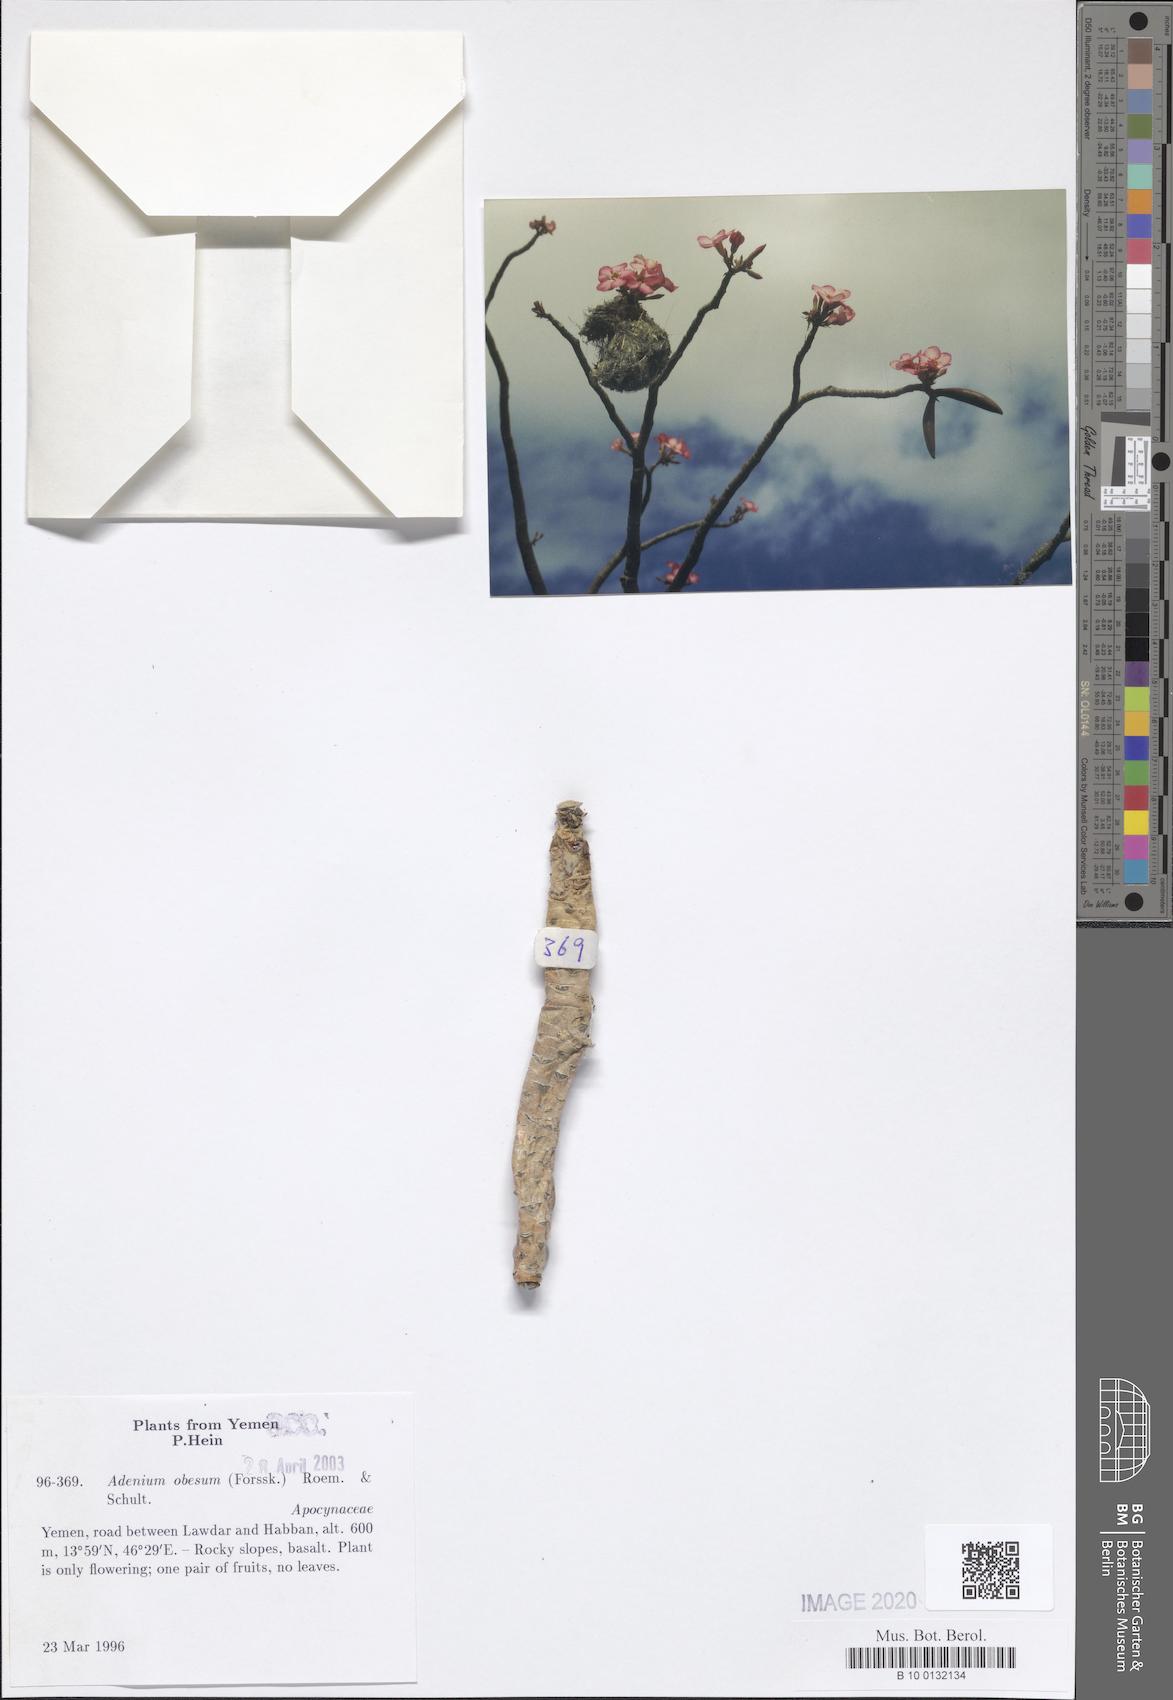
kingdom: Plantae
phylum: Tracheophyta
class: Magnoliopsida
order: Gentianales
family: Apocynaceae
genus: Adenium
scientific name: Adenium obesum
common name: Desert-rose
